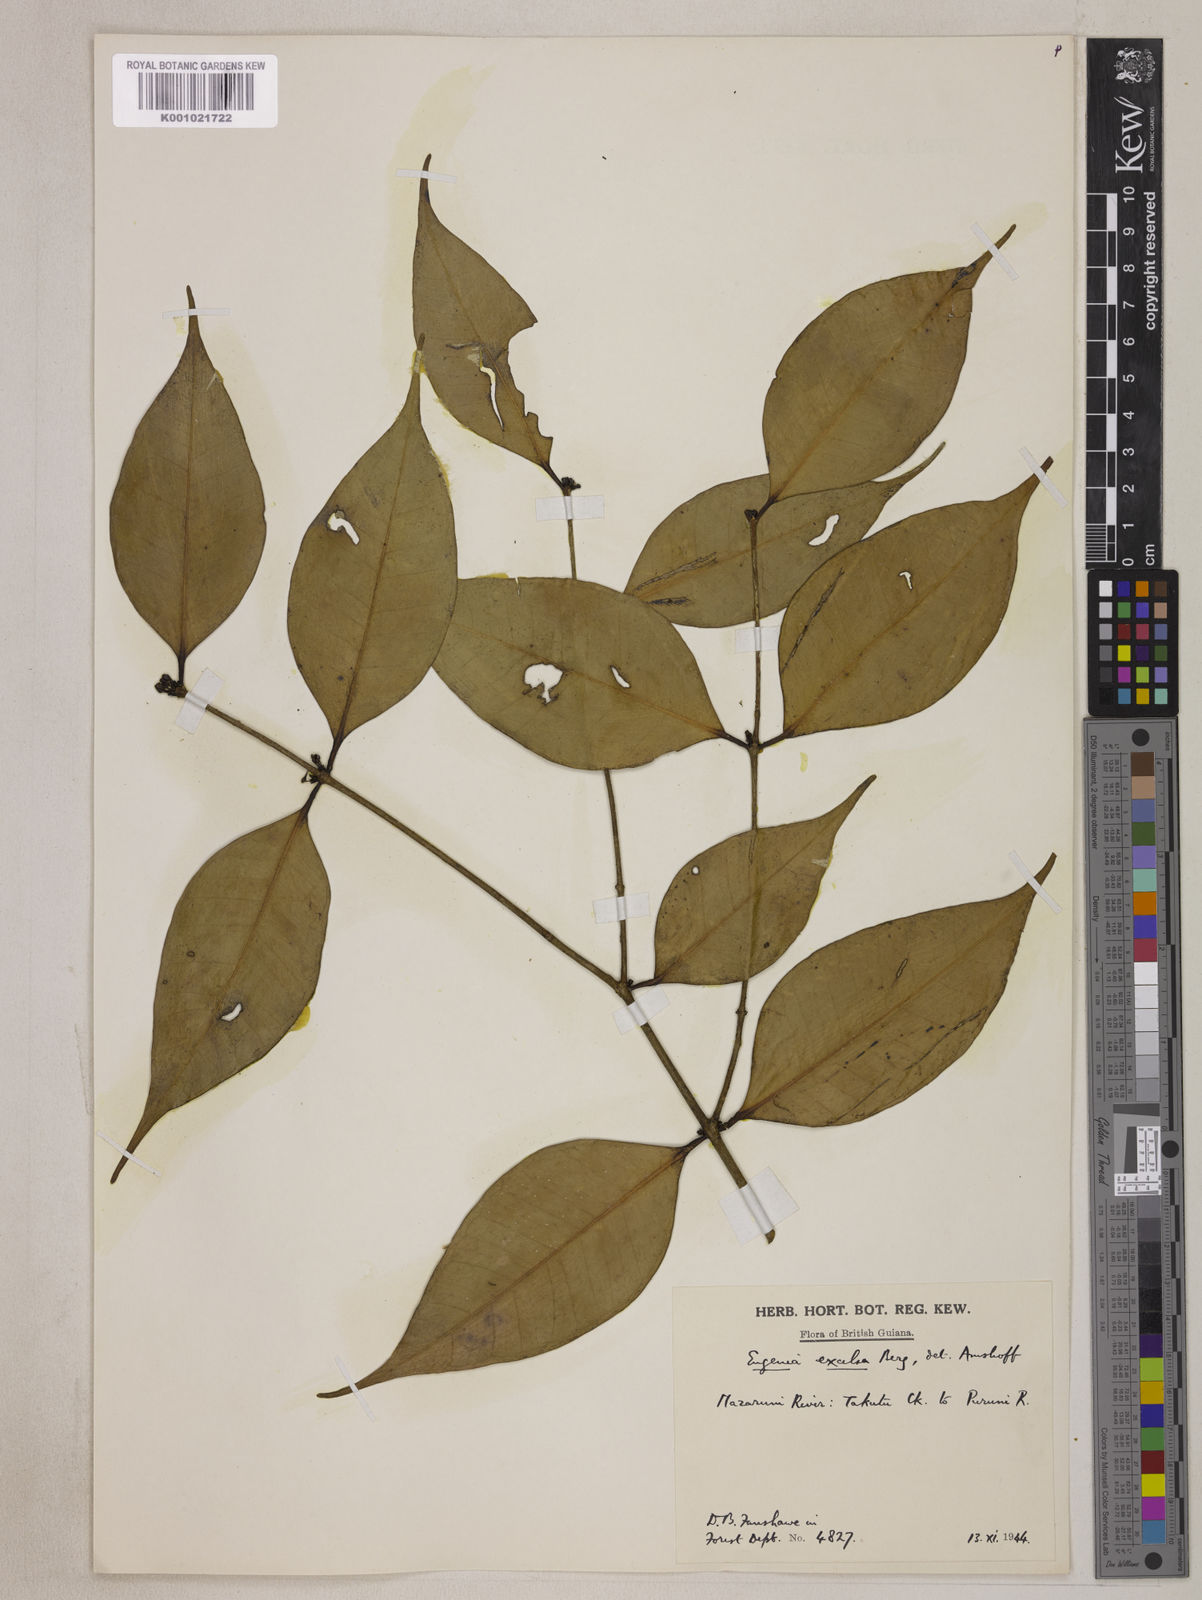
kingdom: Plantae
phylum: Tracheophyta
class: Magnoliopsida
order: Myrtales
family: Myrtaceae
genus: Eugenia
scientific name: Eugenia excelsa
